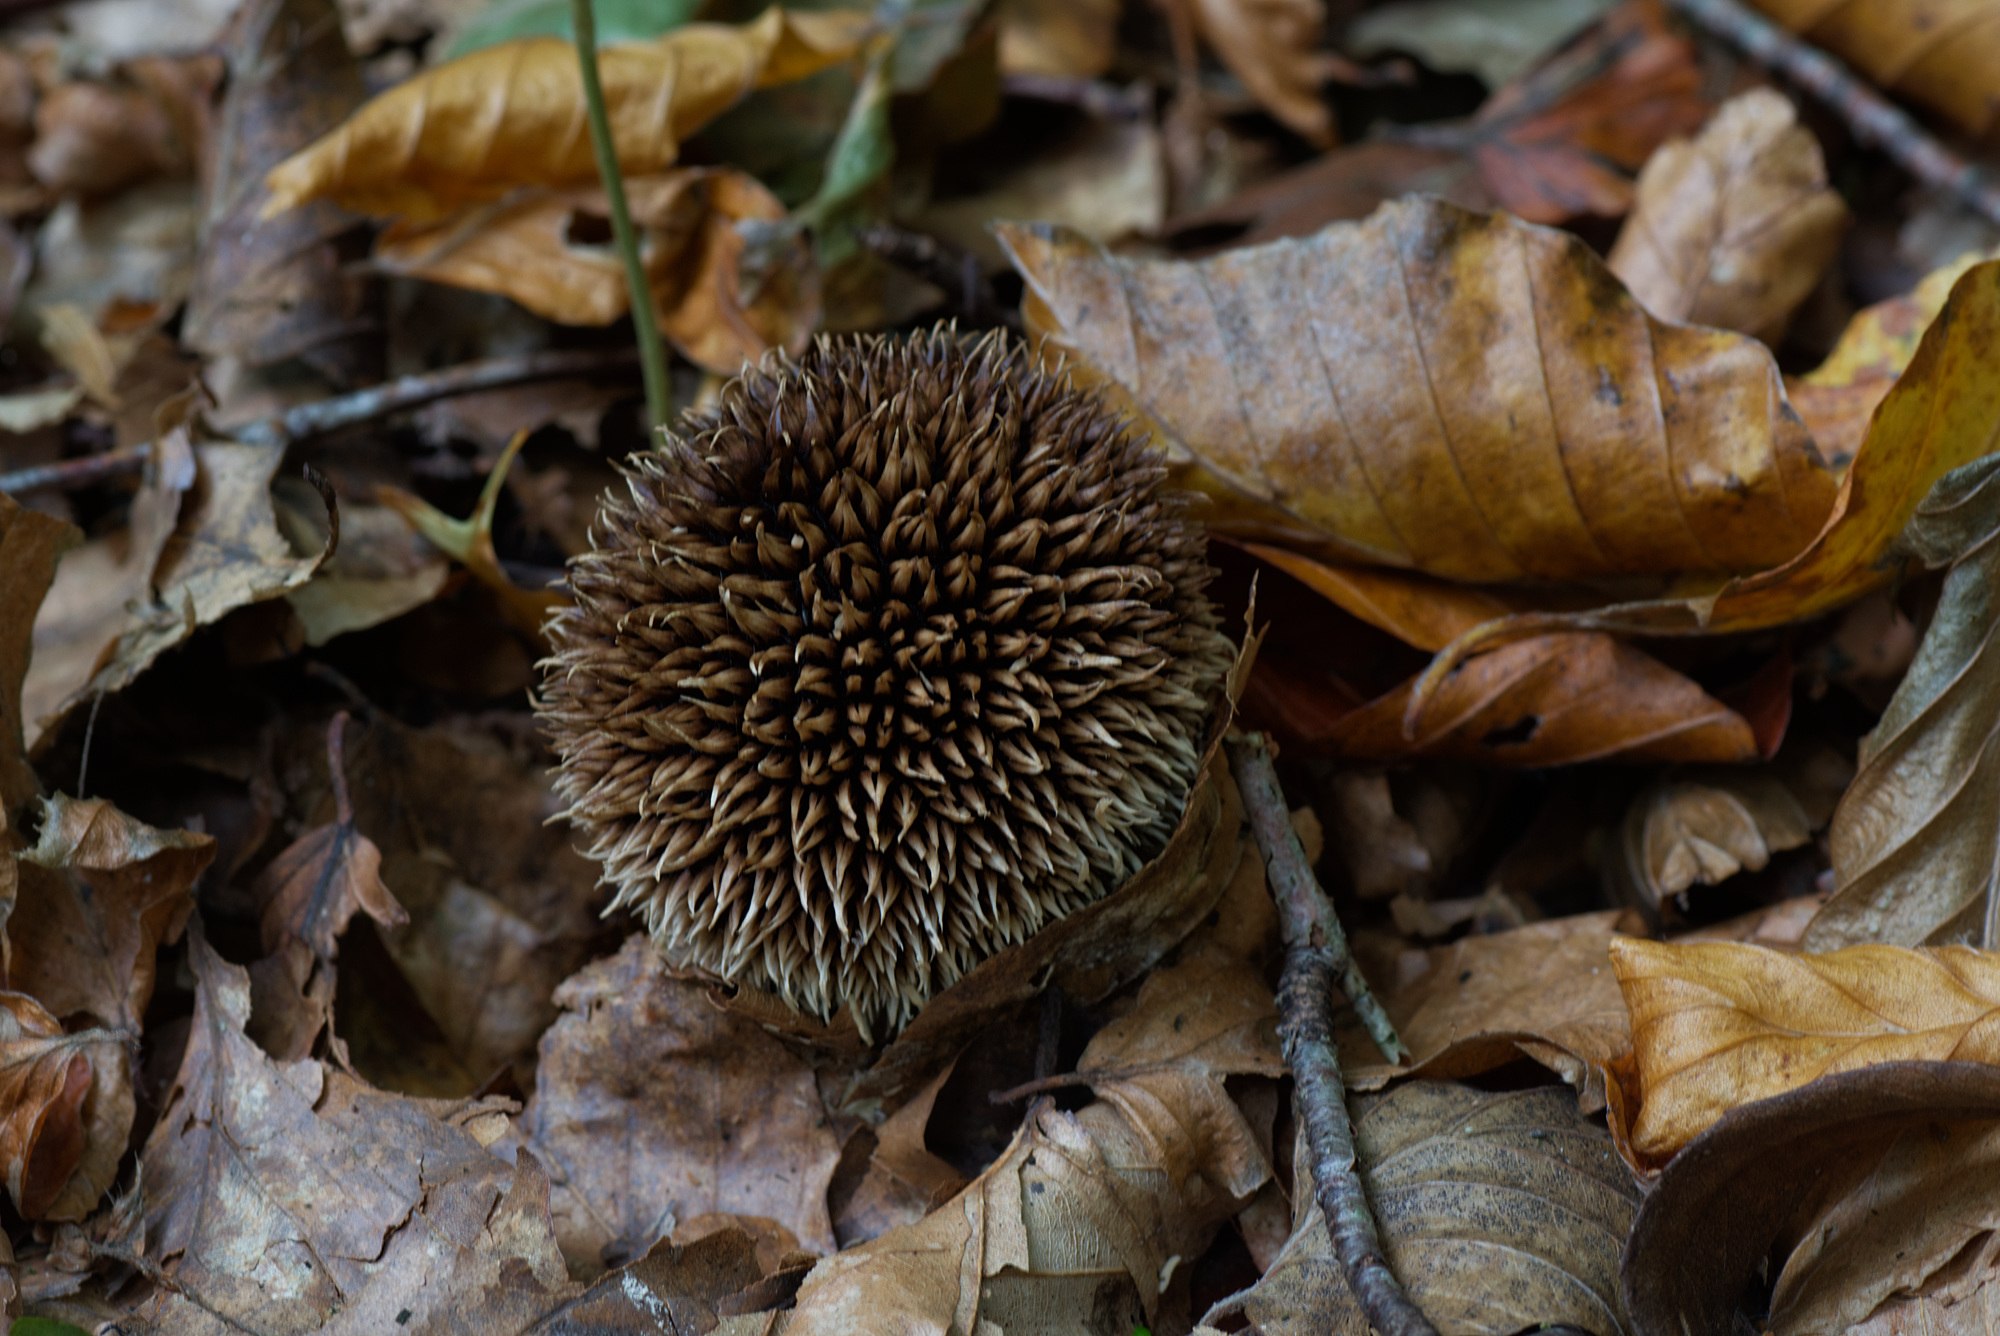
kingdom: Fungi
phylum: Basidiomycota
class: Agaricomycetes
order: Agaricales
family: Lycoperdaceae
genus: Lycoperdon
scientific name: Lycoperdon echinatum
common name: pindsvine-støvbold
